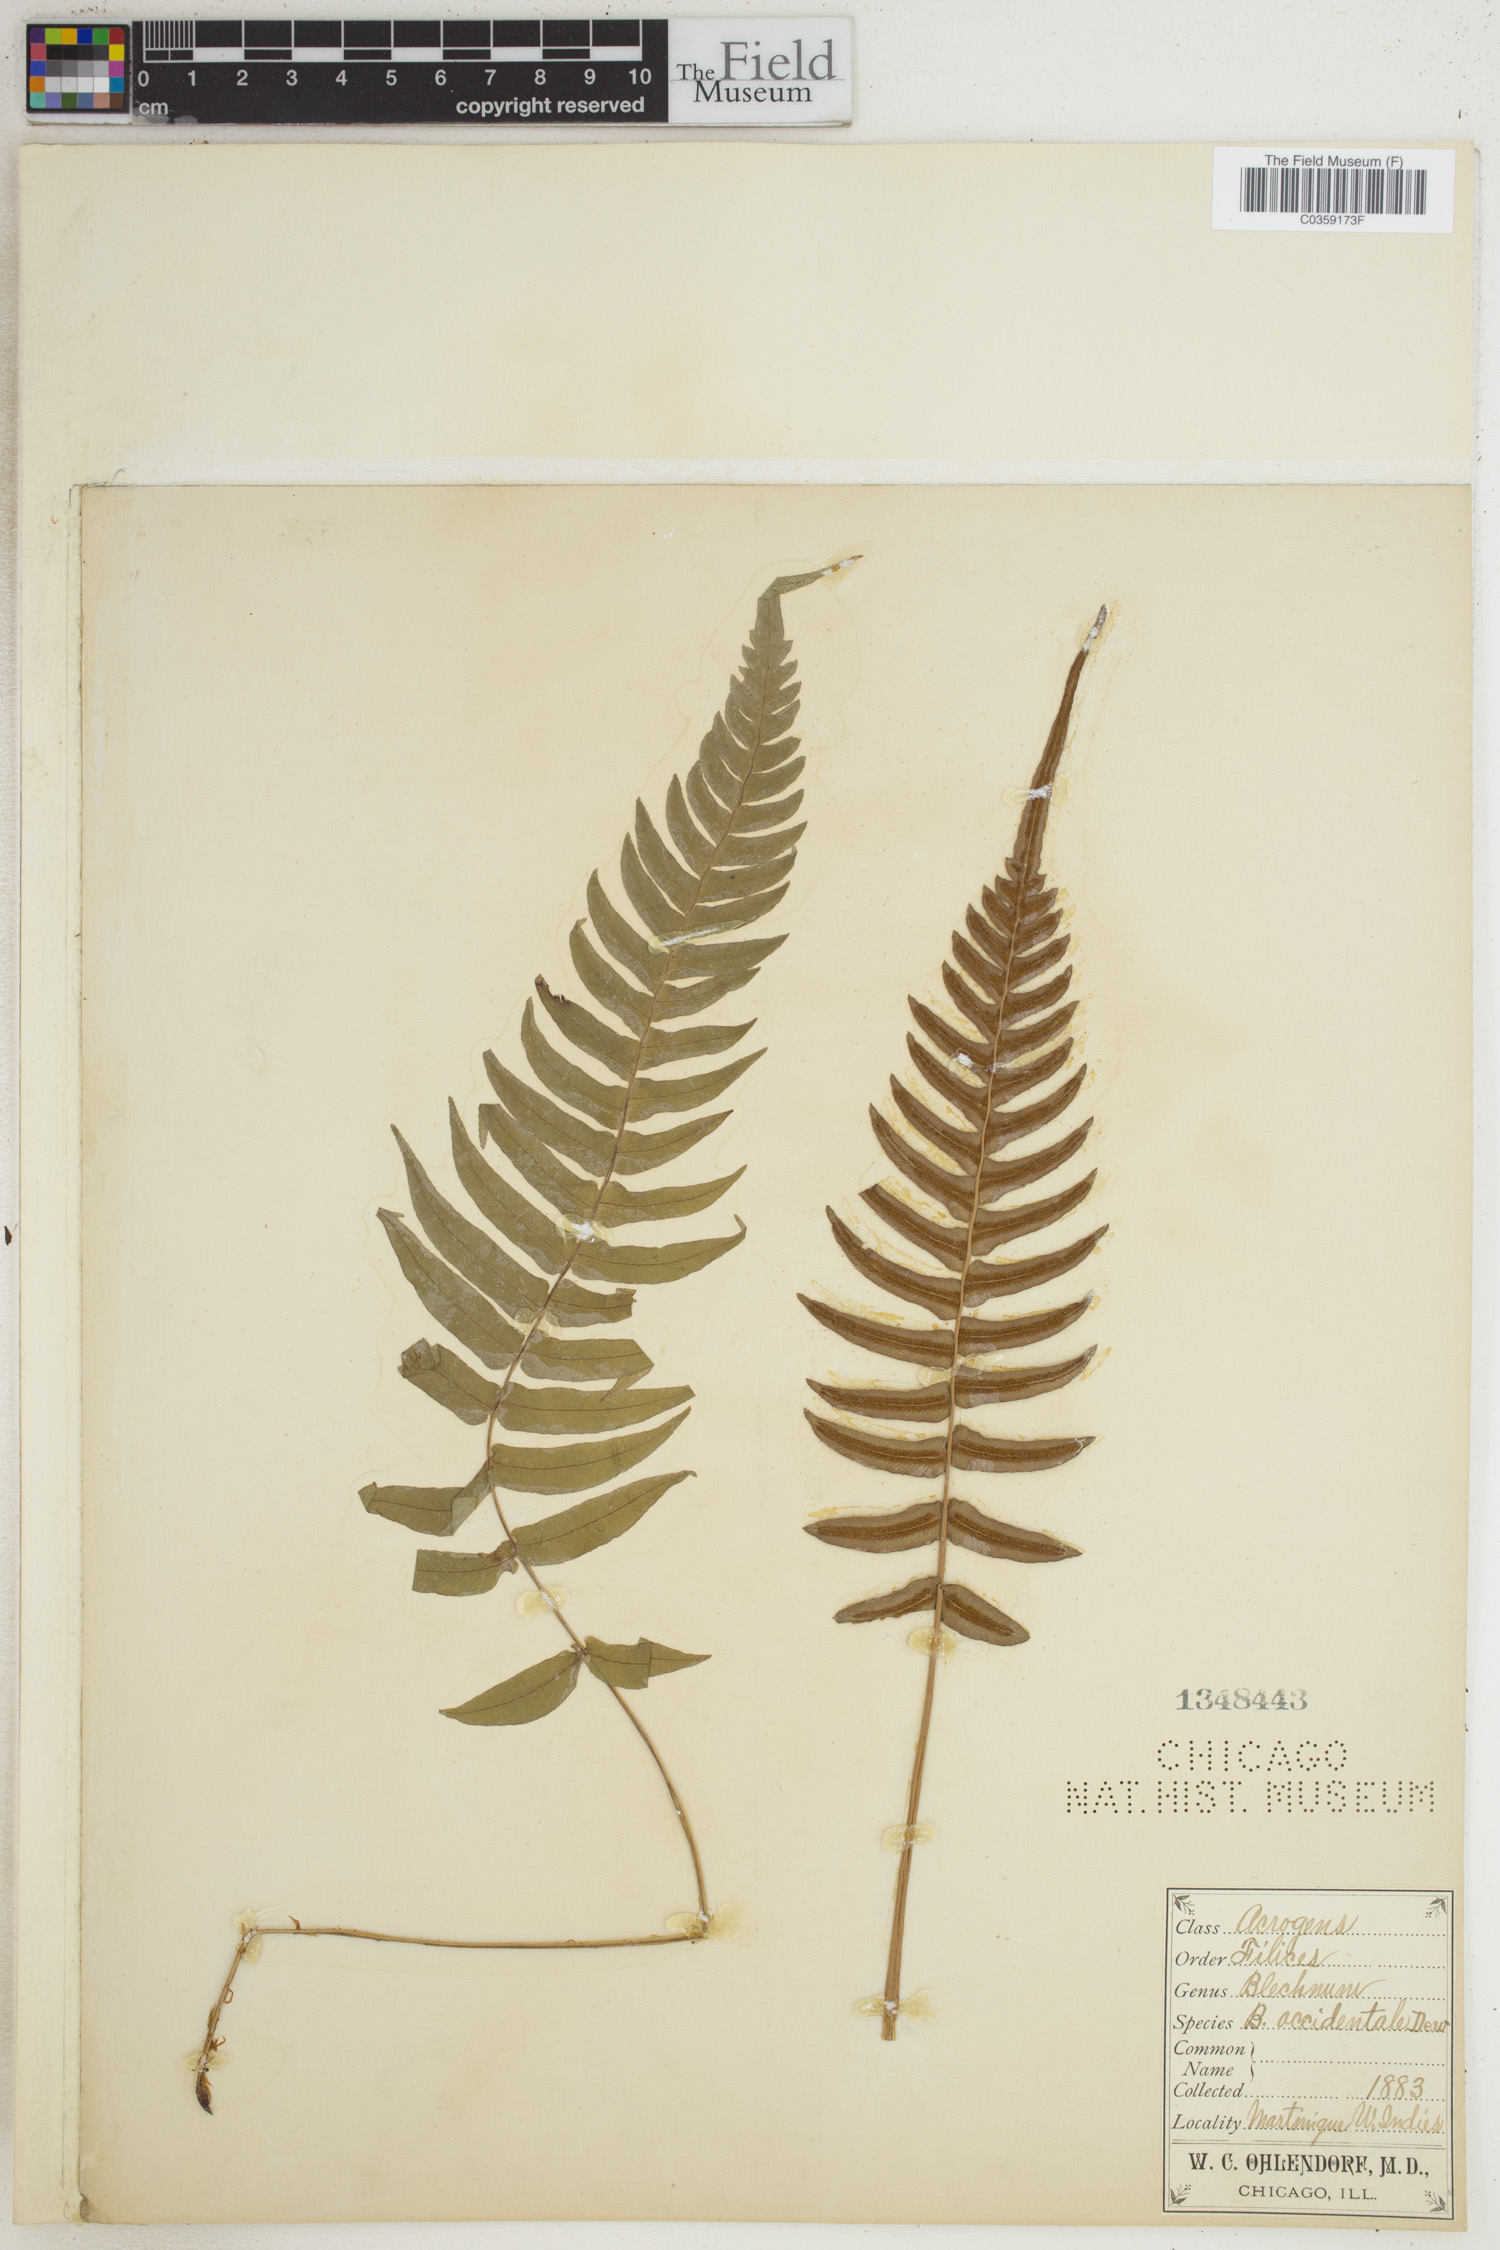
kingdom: Plantae
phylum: Tracheophyta
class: Polypodiopsida
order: Polypodiales
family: Blechnaceae
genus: Blechnum
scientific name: Blechnum occidentale
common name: Hammock fern
